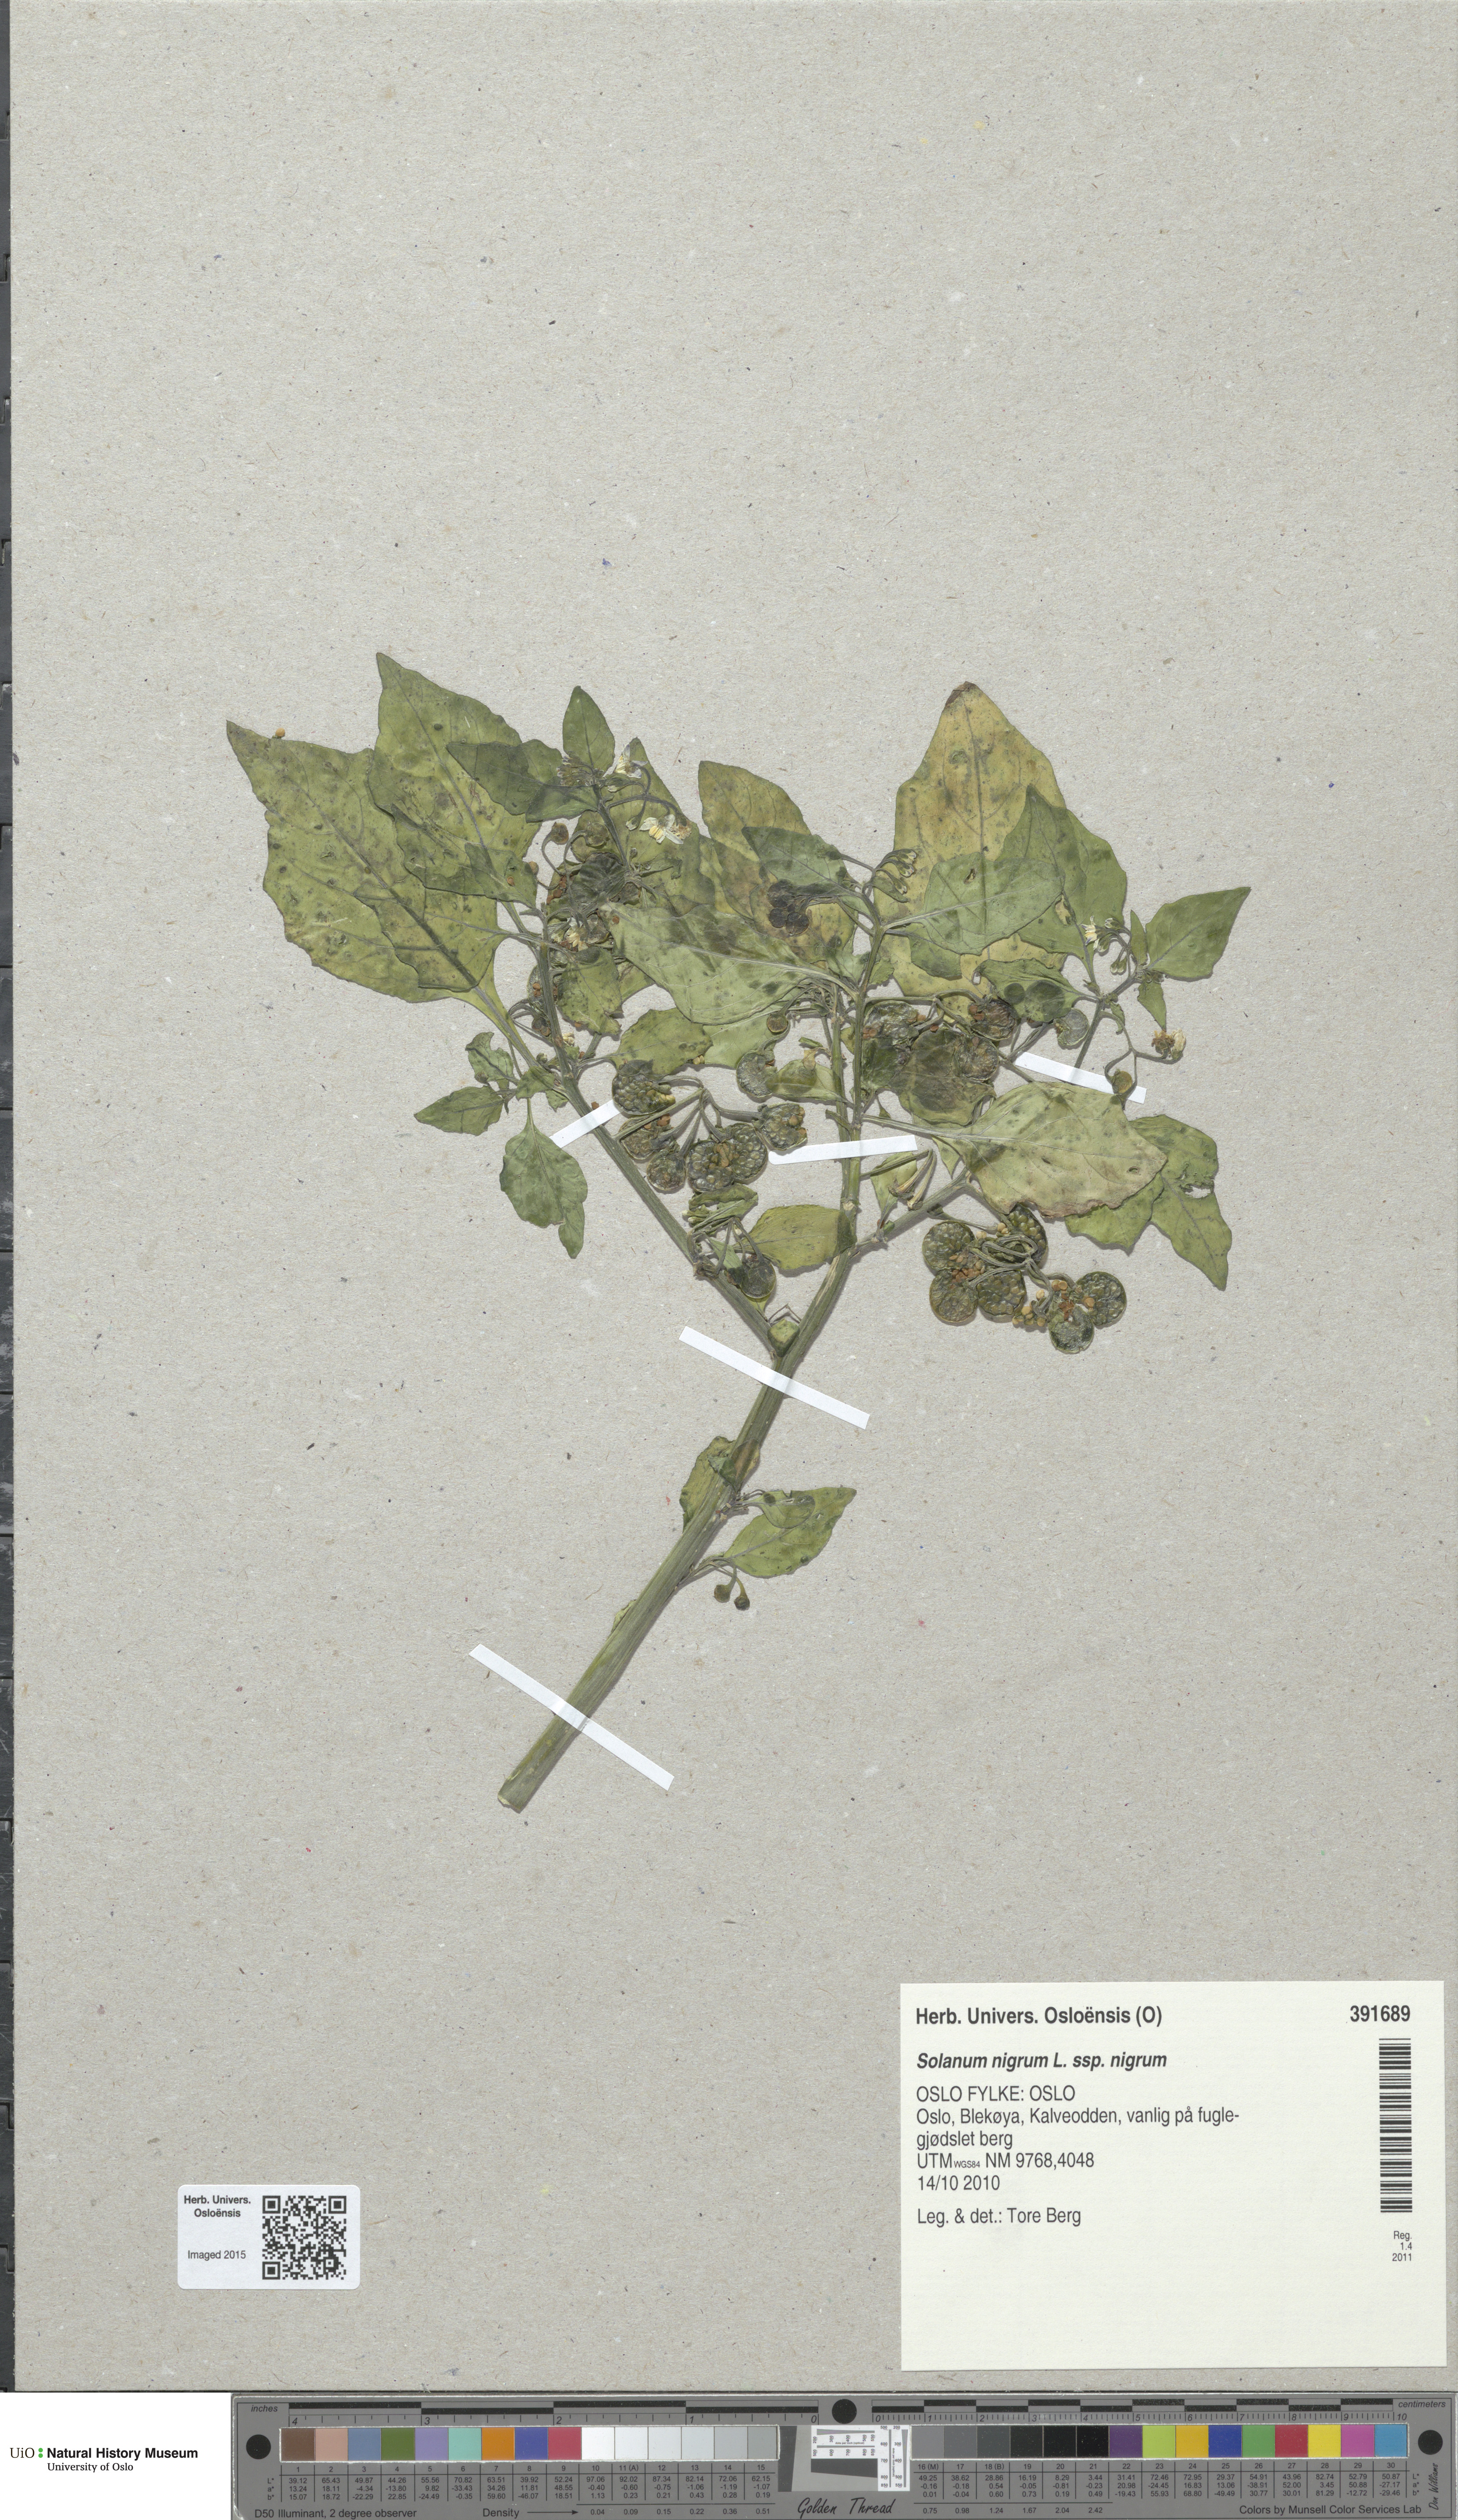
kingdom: Plantae
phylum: Tracheophyta
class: Magnoliopsida
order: Solanales
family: Solanaceae
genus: Solanum
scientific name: Solanum nigrum
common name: Black nightshade
